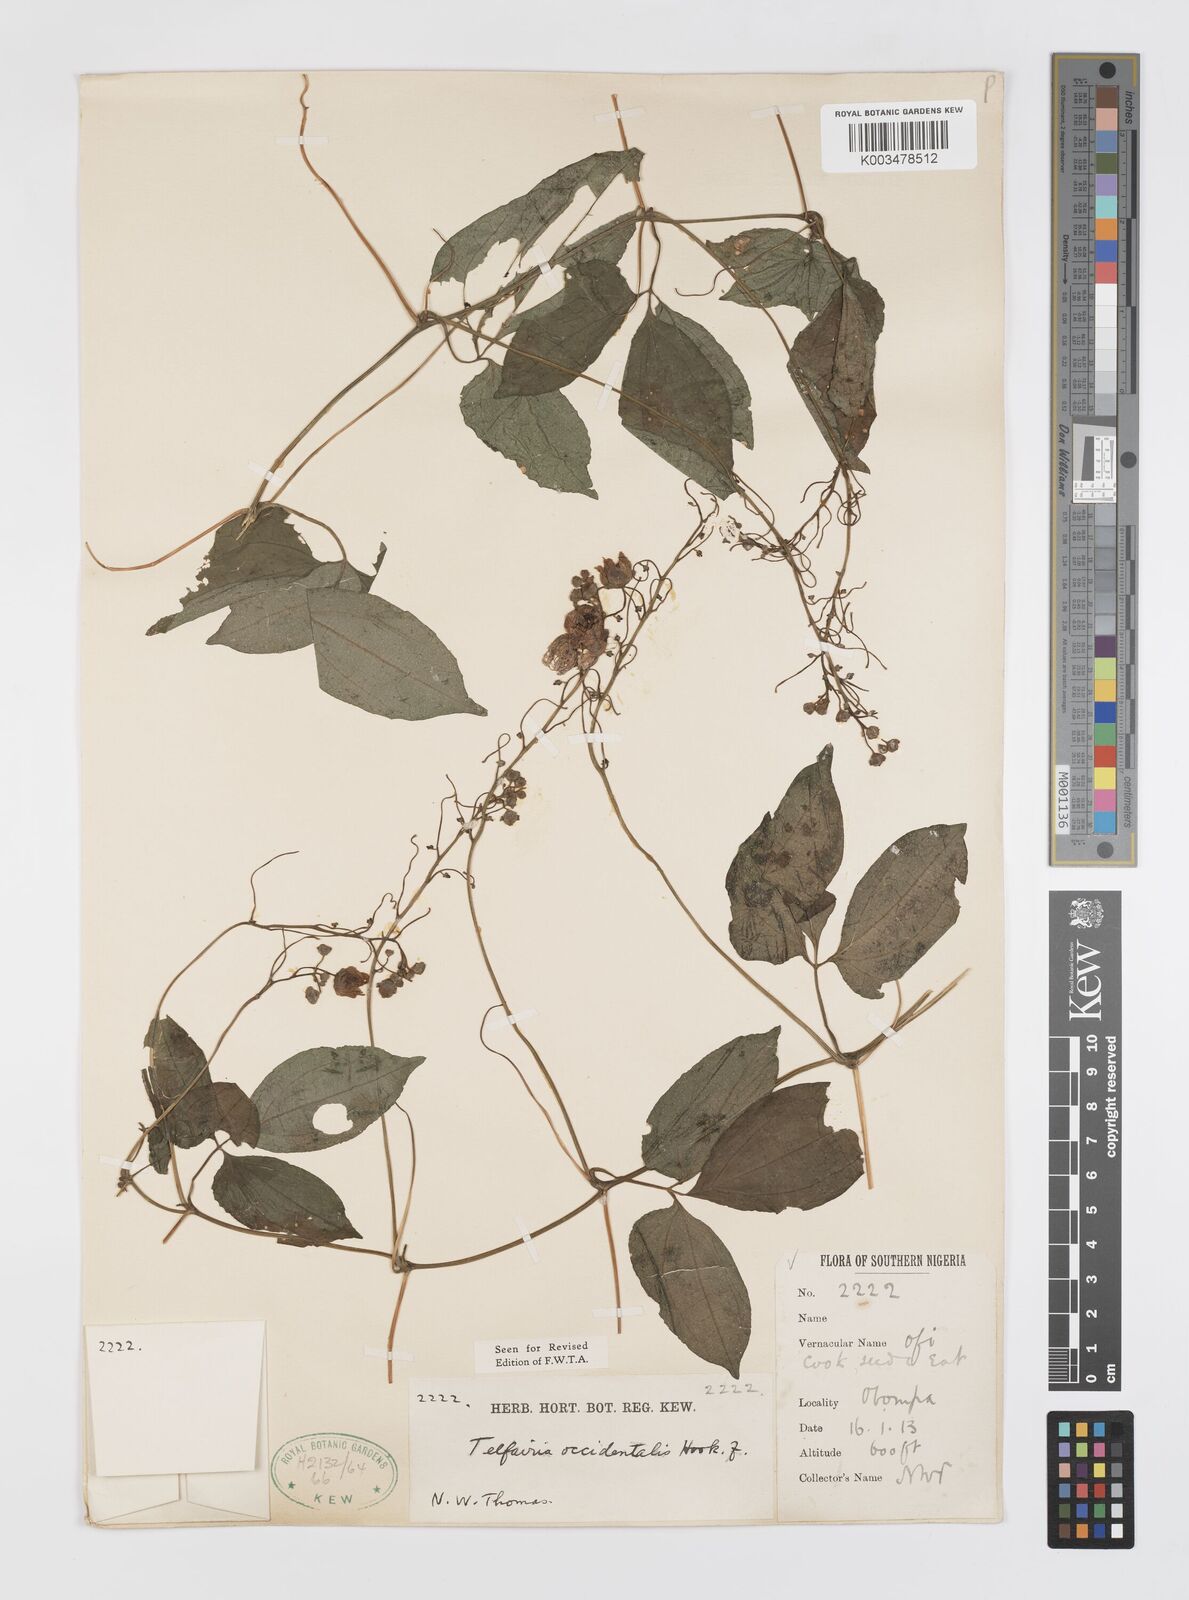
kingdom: Plantae
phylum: Tracheophyta
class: Magnoliopsida
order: Cucurbitales
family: Cucurbitaceae
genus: Telfairia
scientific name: Telfairia occidentalis
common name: Oysternut
